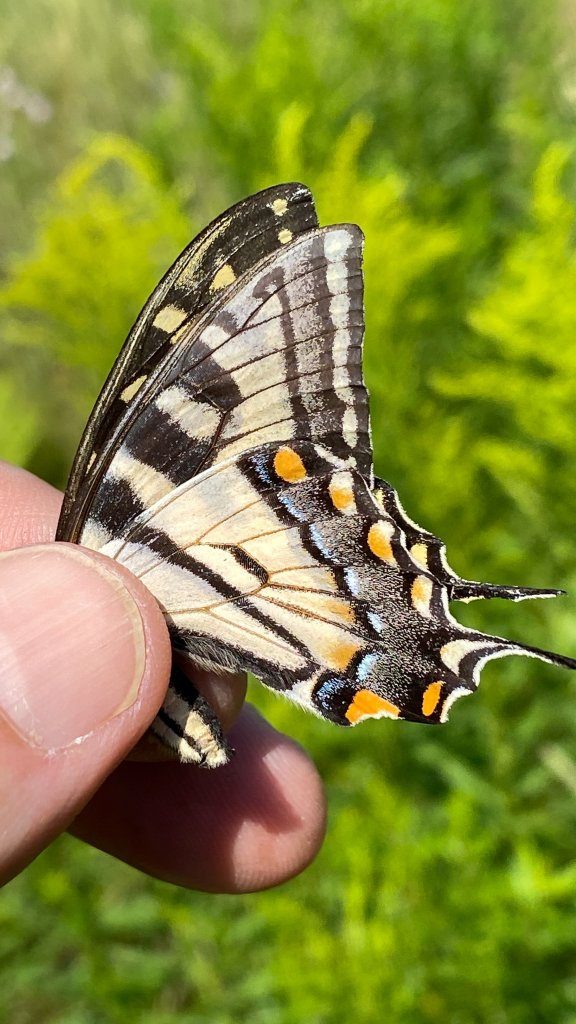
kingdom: Animalia
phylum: Arthropoda
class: Insecta
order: Lepidoptera
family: Papilionidae
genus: Pterourus
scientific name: Pterourus canadensis
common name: Canadian Tiger Swallowtail
